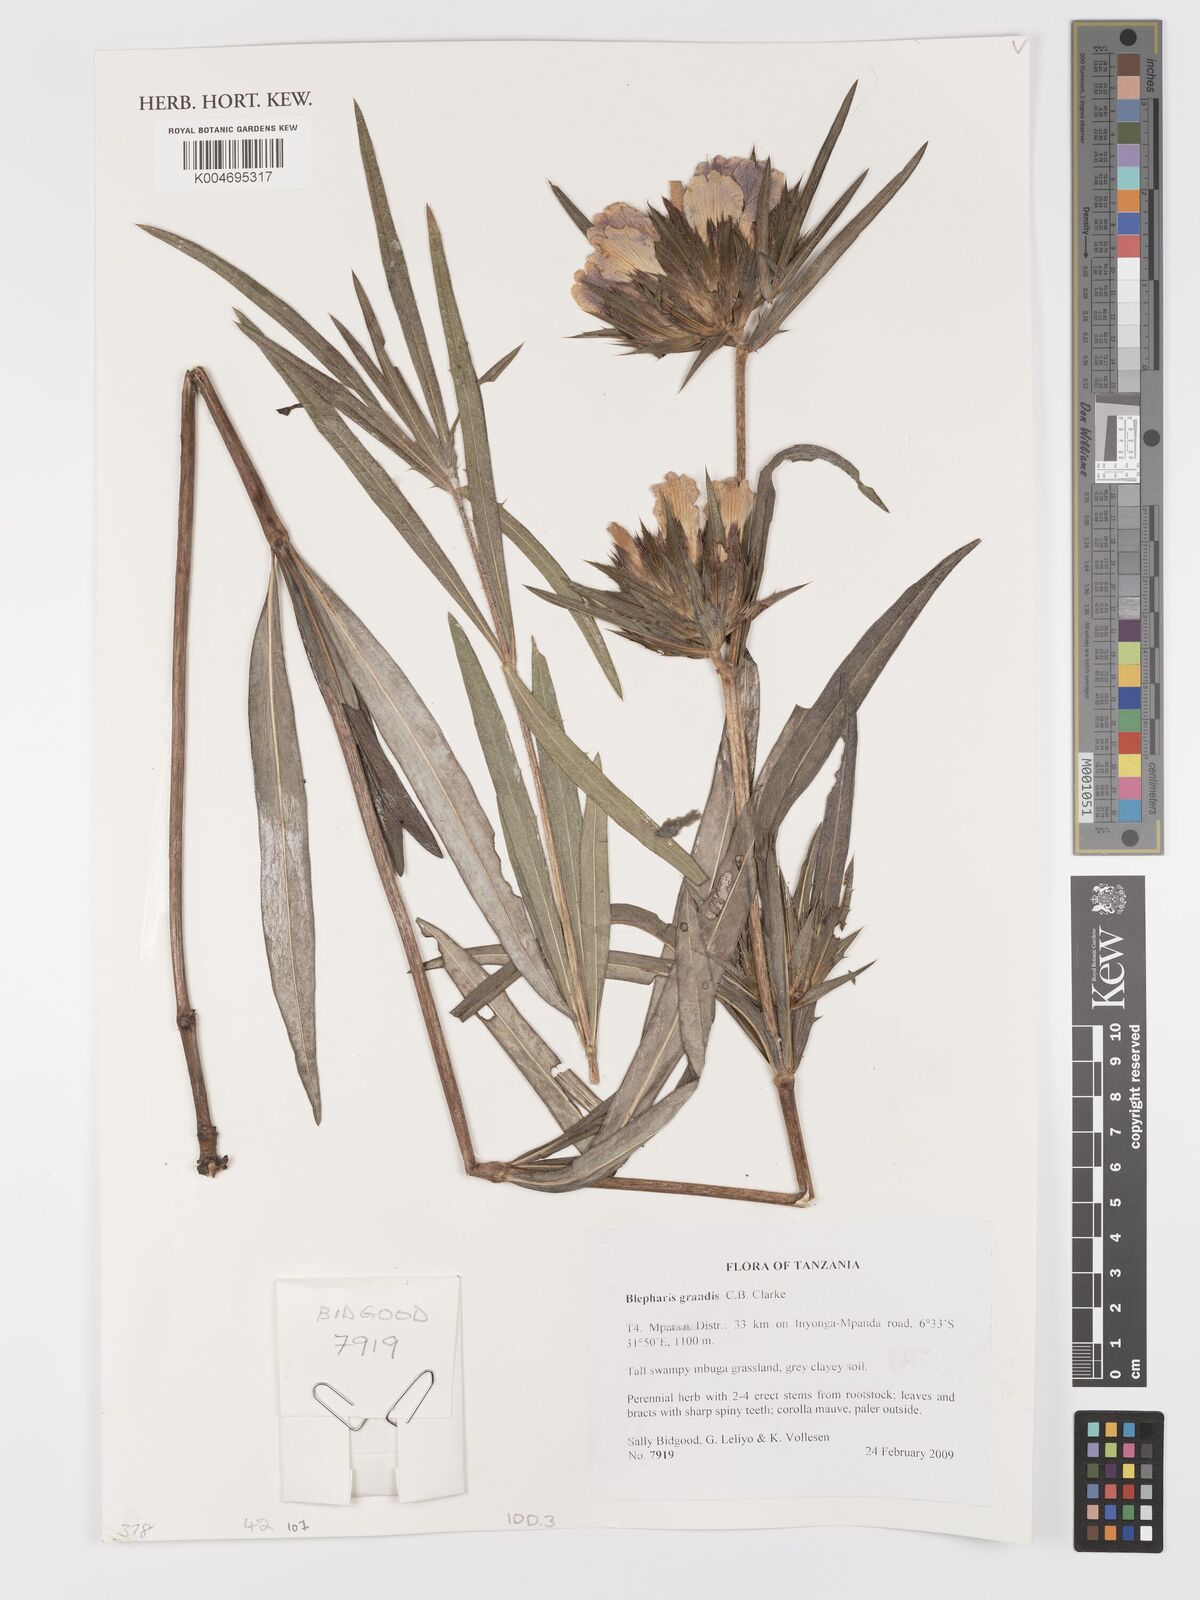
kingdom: Plantae
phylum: Tracheophyta
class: Magnoliopsida
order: Lamiales
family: Acanthaceae
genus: Blepharis
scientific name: Blepharis grandis
